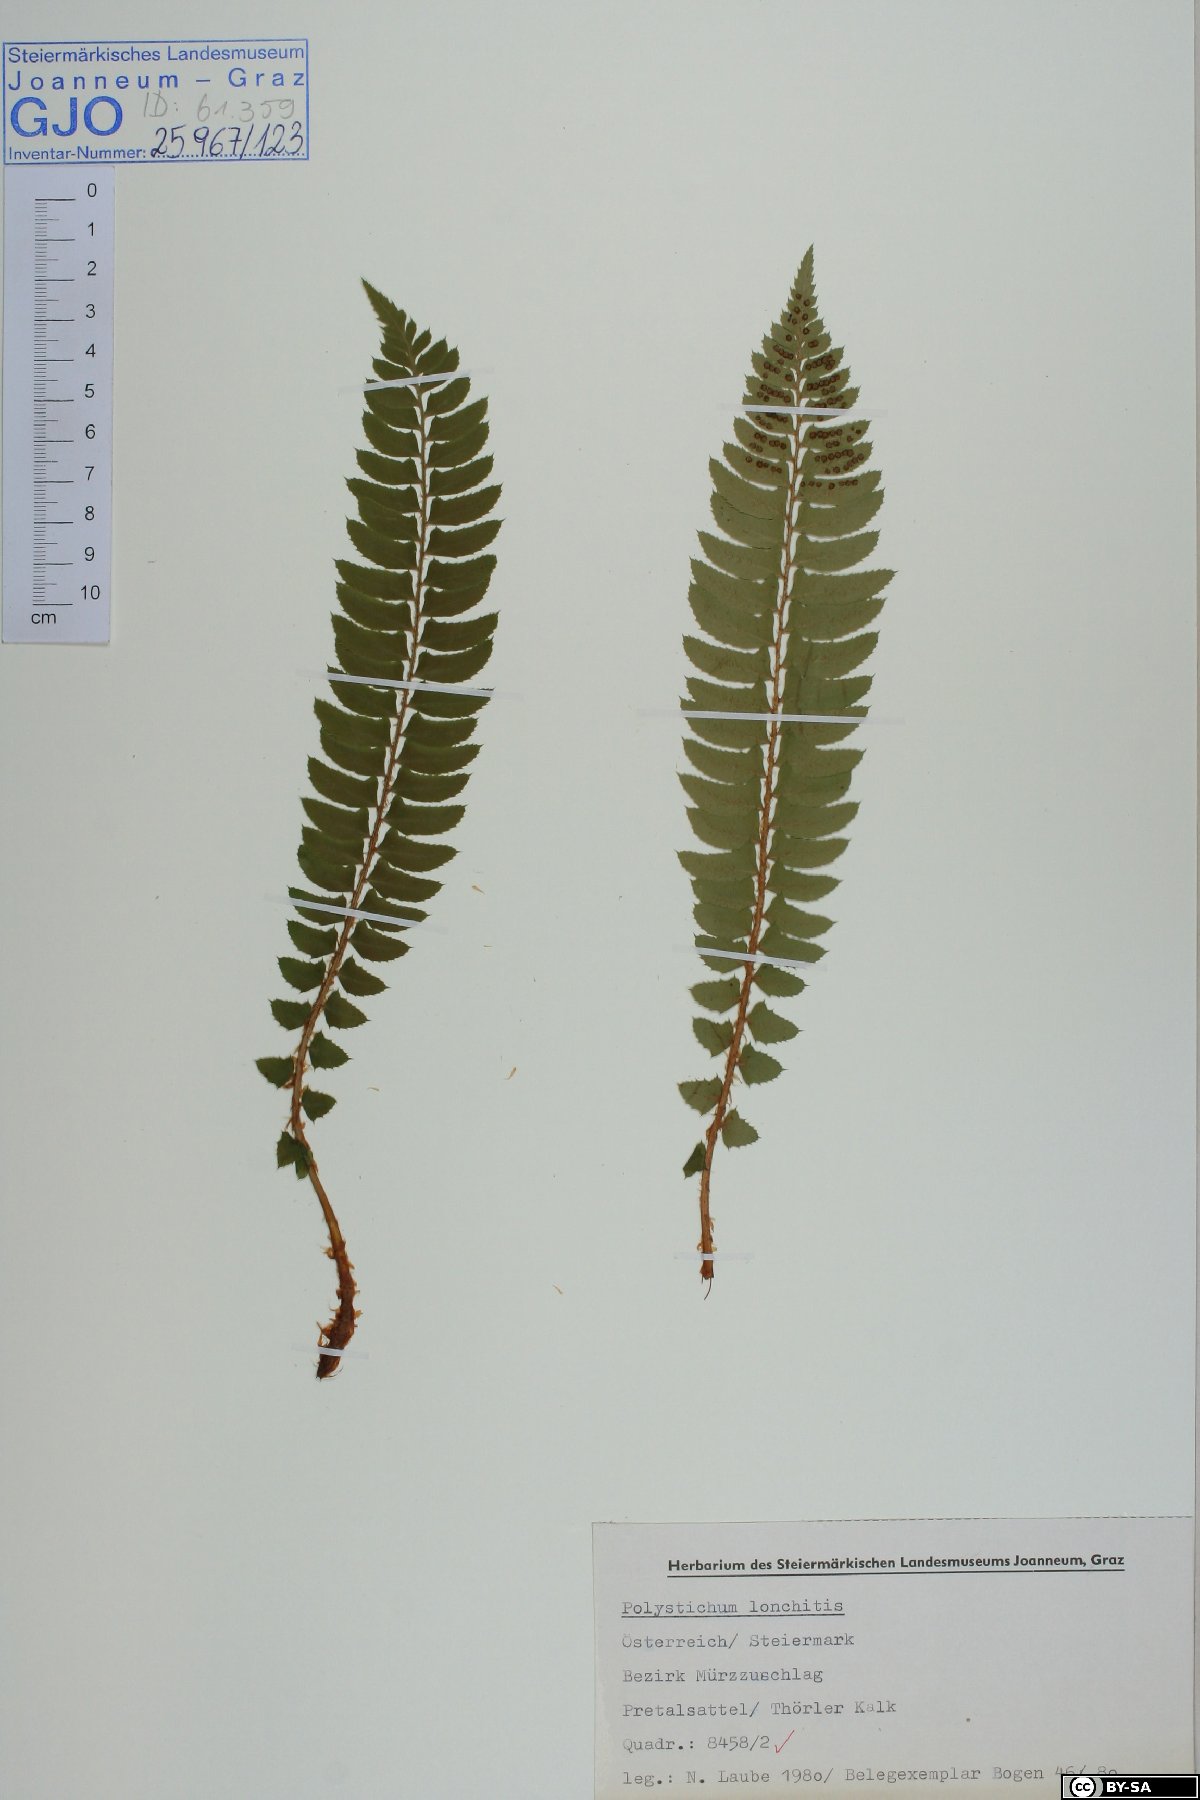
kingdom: Plantae
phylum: Tracheophyta
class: Polypodiopsida
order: Polypodiales
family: Dryopteridaceae
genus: Polystichum
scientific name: Polystichum lonchitis
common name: Holly fern
